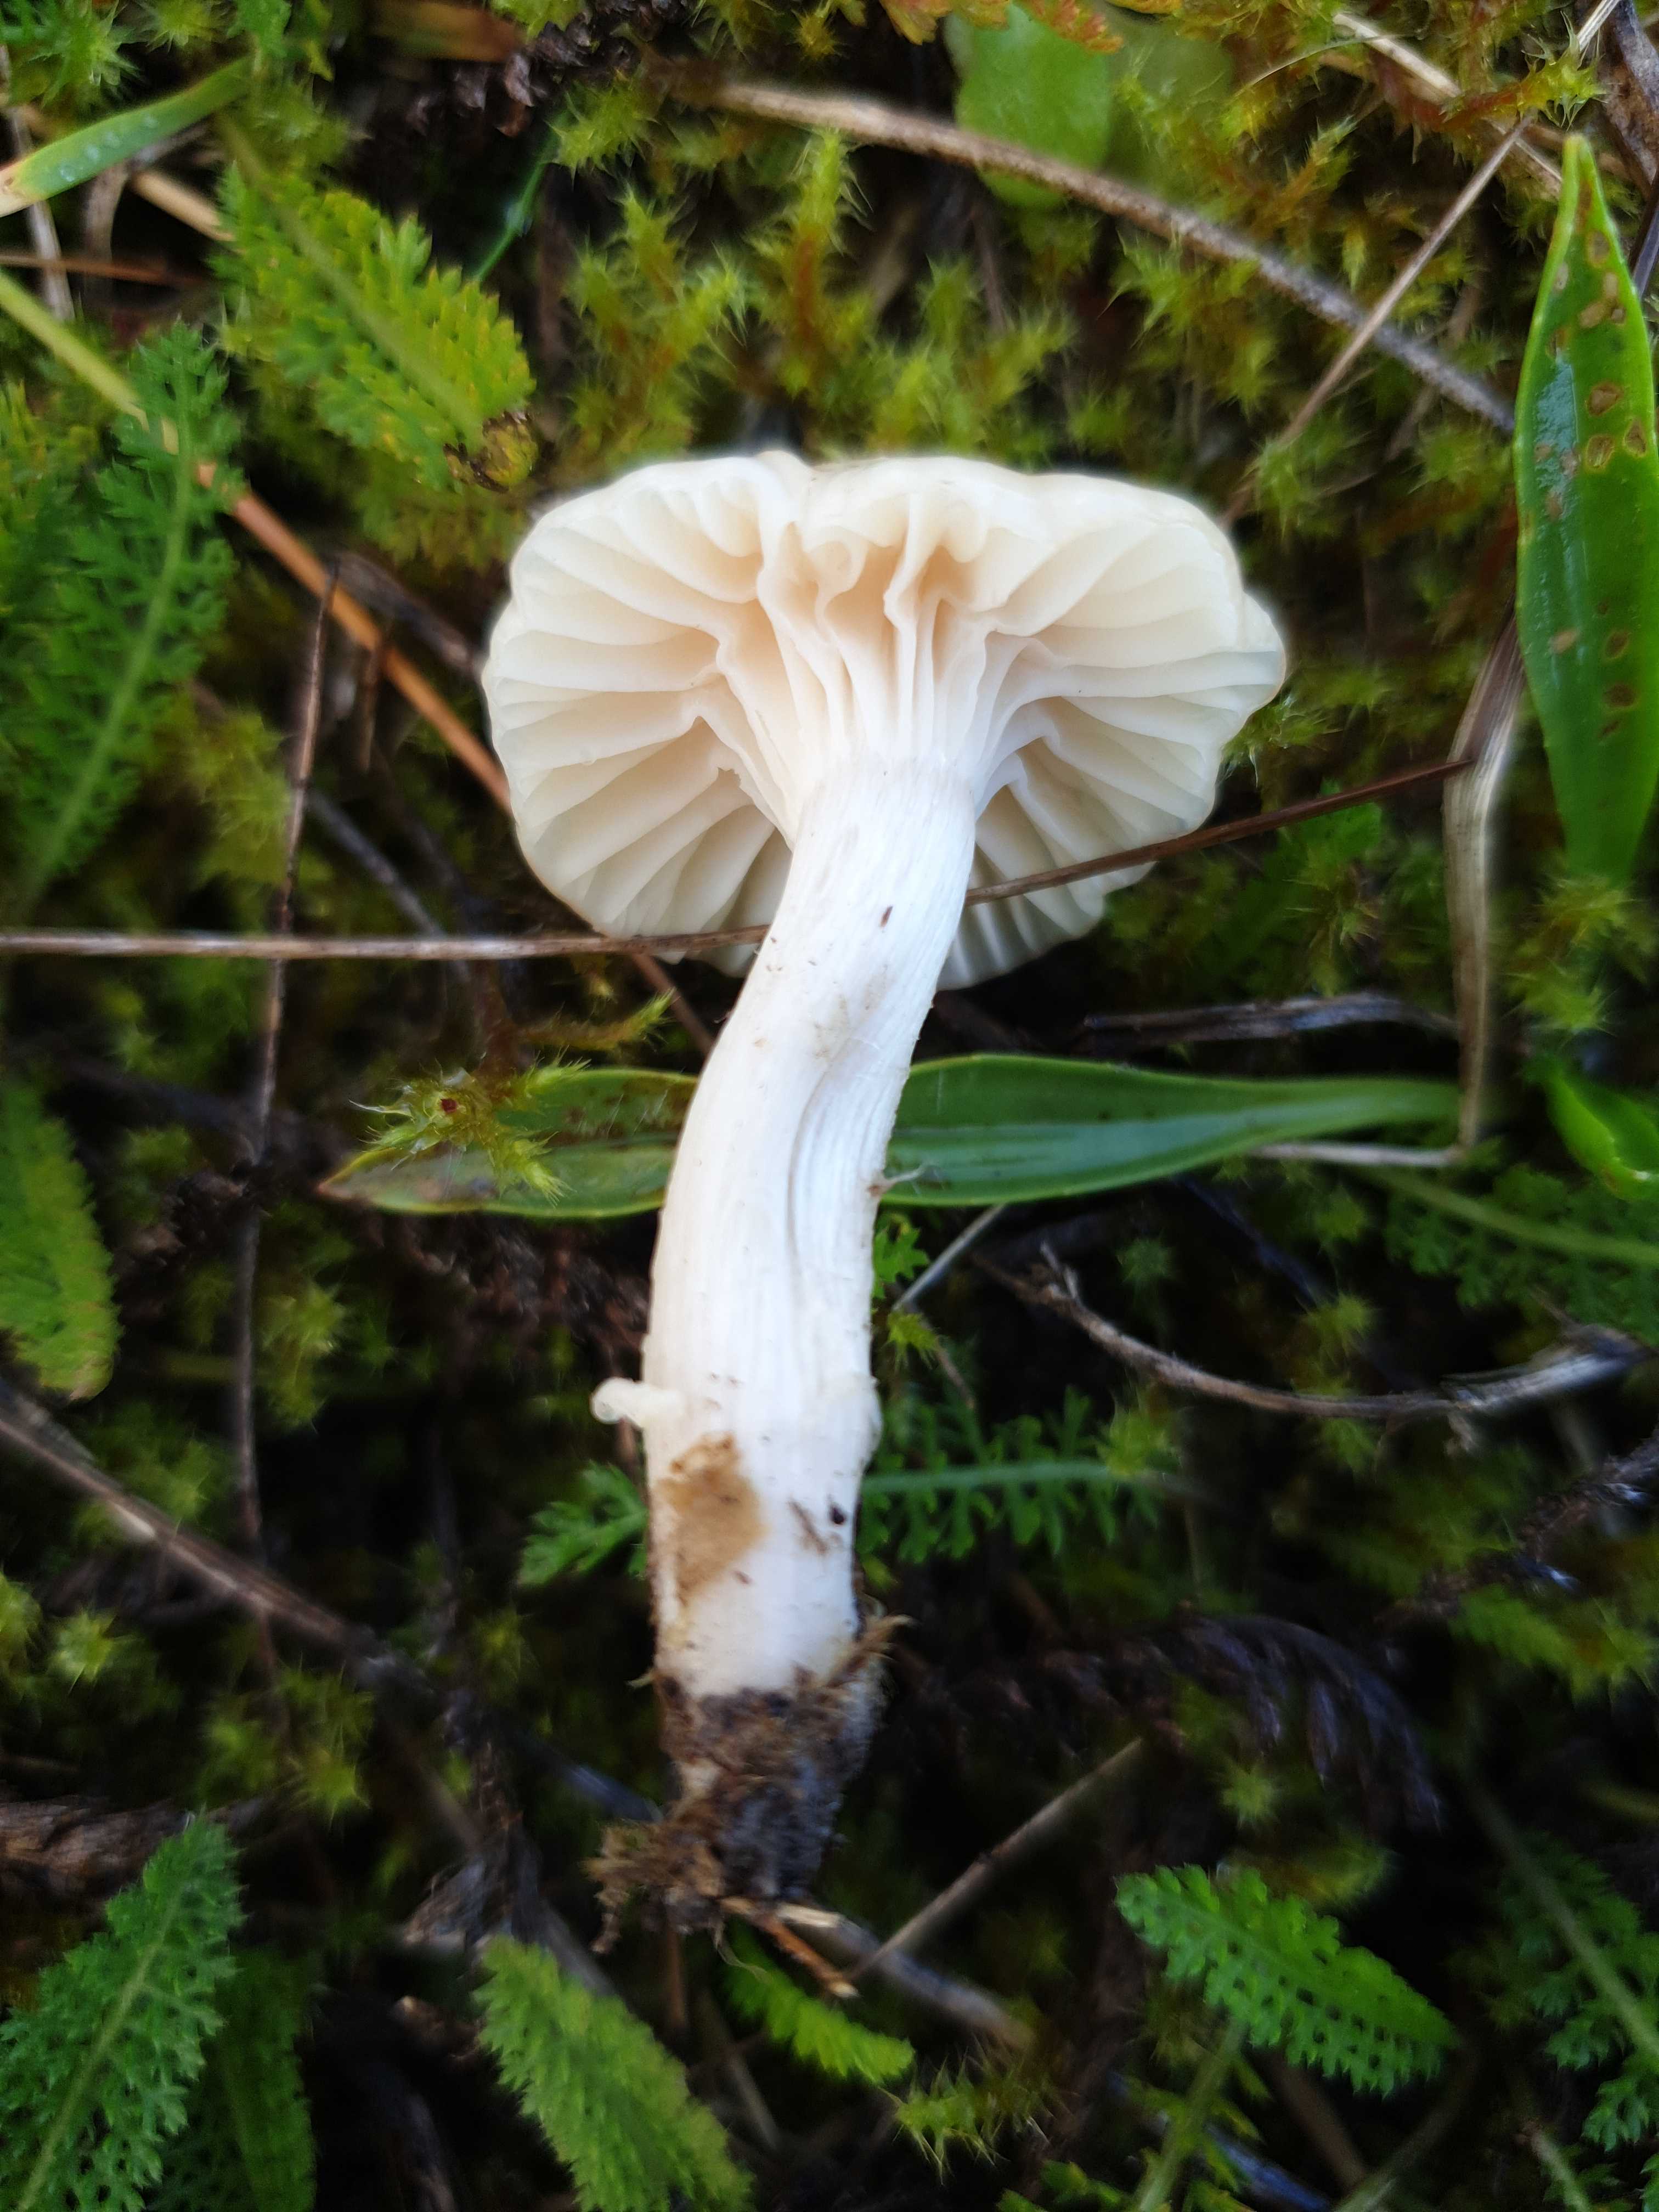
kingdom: Fungi
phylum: Basidiomycota
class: Agaricomycetes
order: Agaricales
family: Hygrophoraceae
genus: Cuphophyllus
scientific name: Cuphophyllus virgineus
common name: isabella-vokshat
